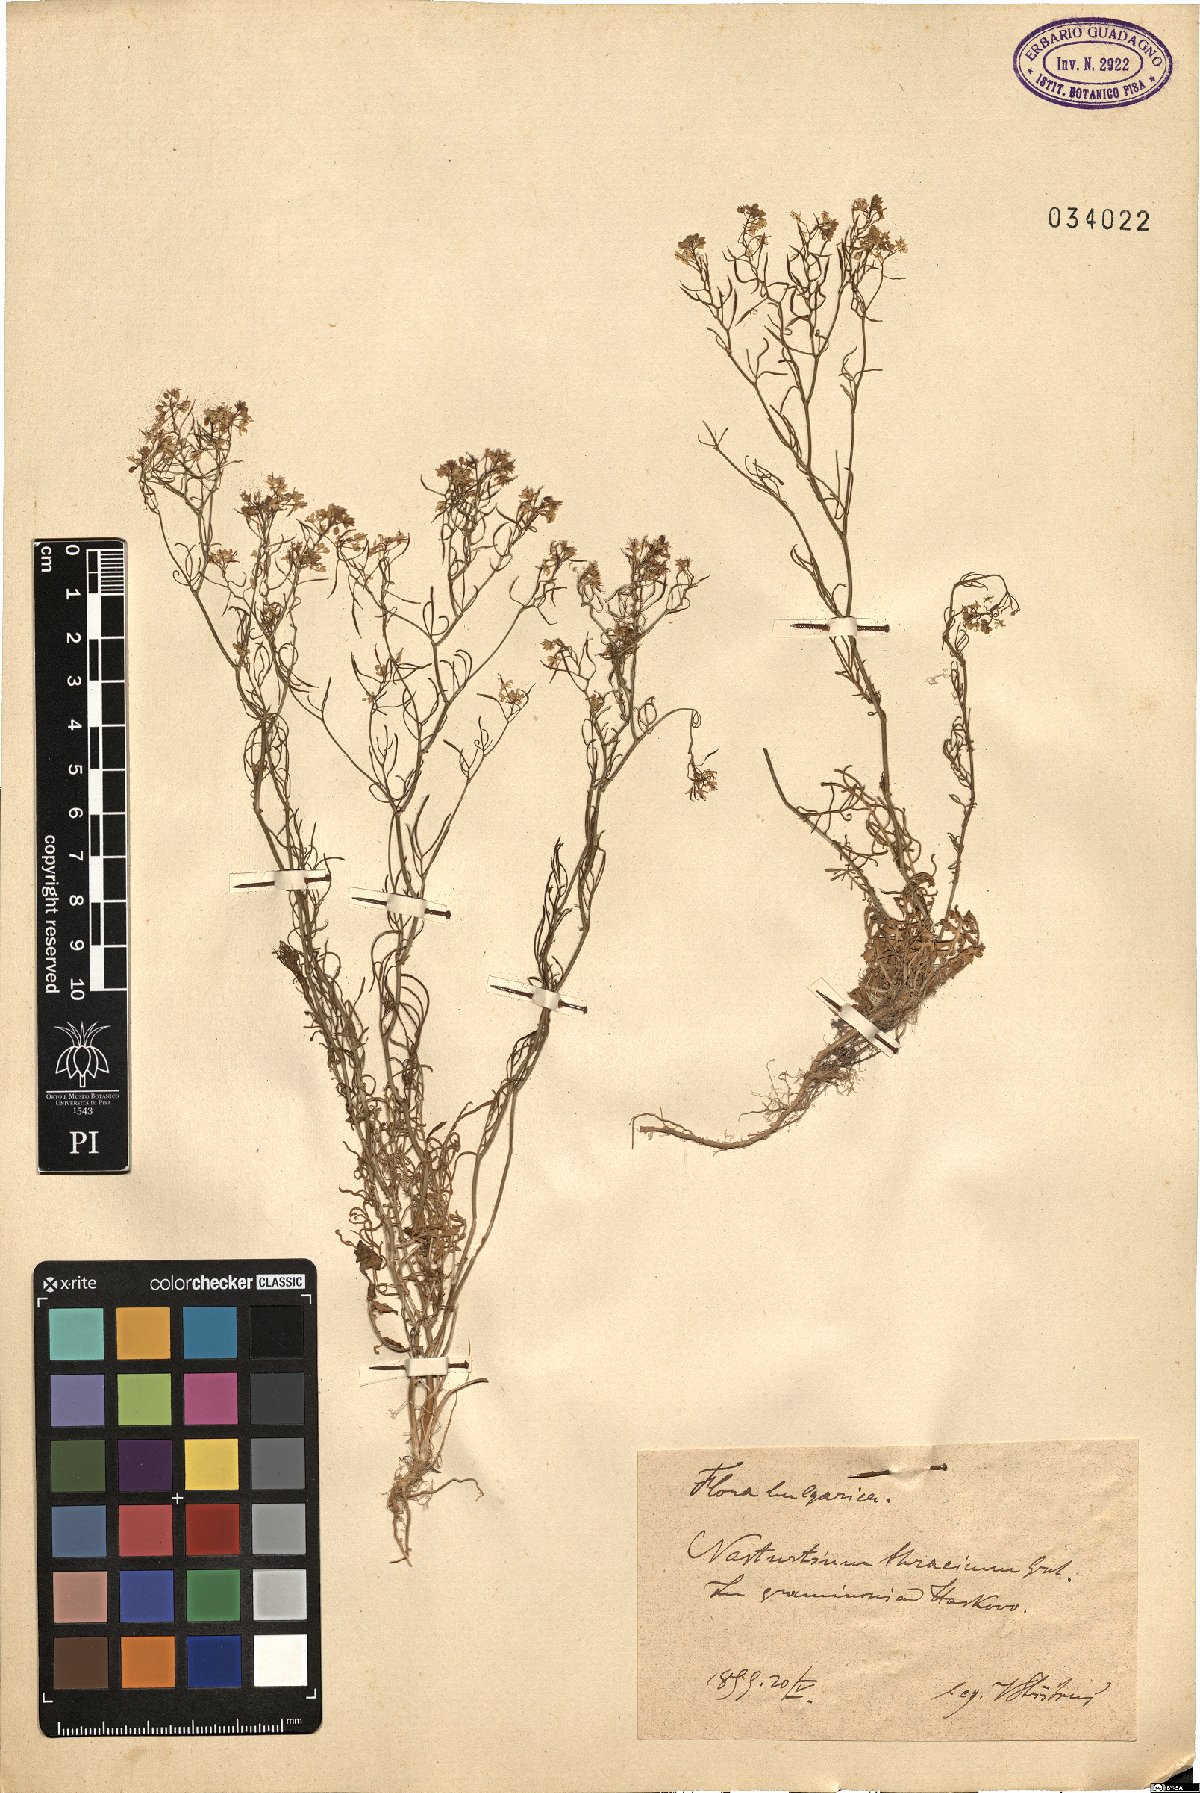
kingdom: Plantae
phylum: Tracheophyta
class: Magnoliopsida
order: Brassicales
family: Brassicaceae
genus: Rorippa
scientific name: Rorippa lippizensis
